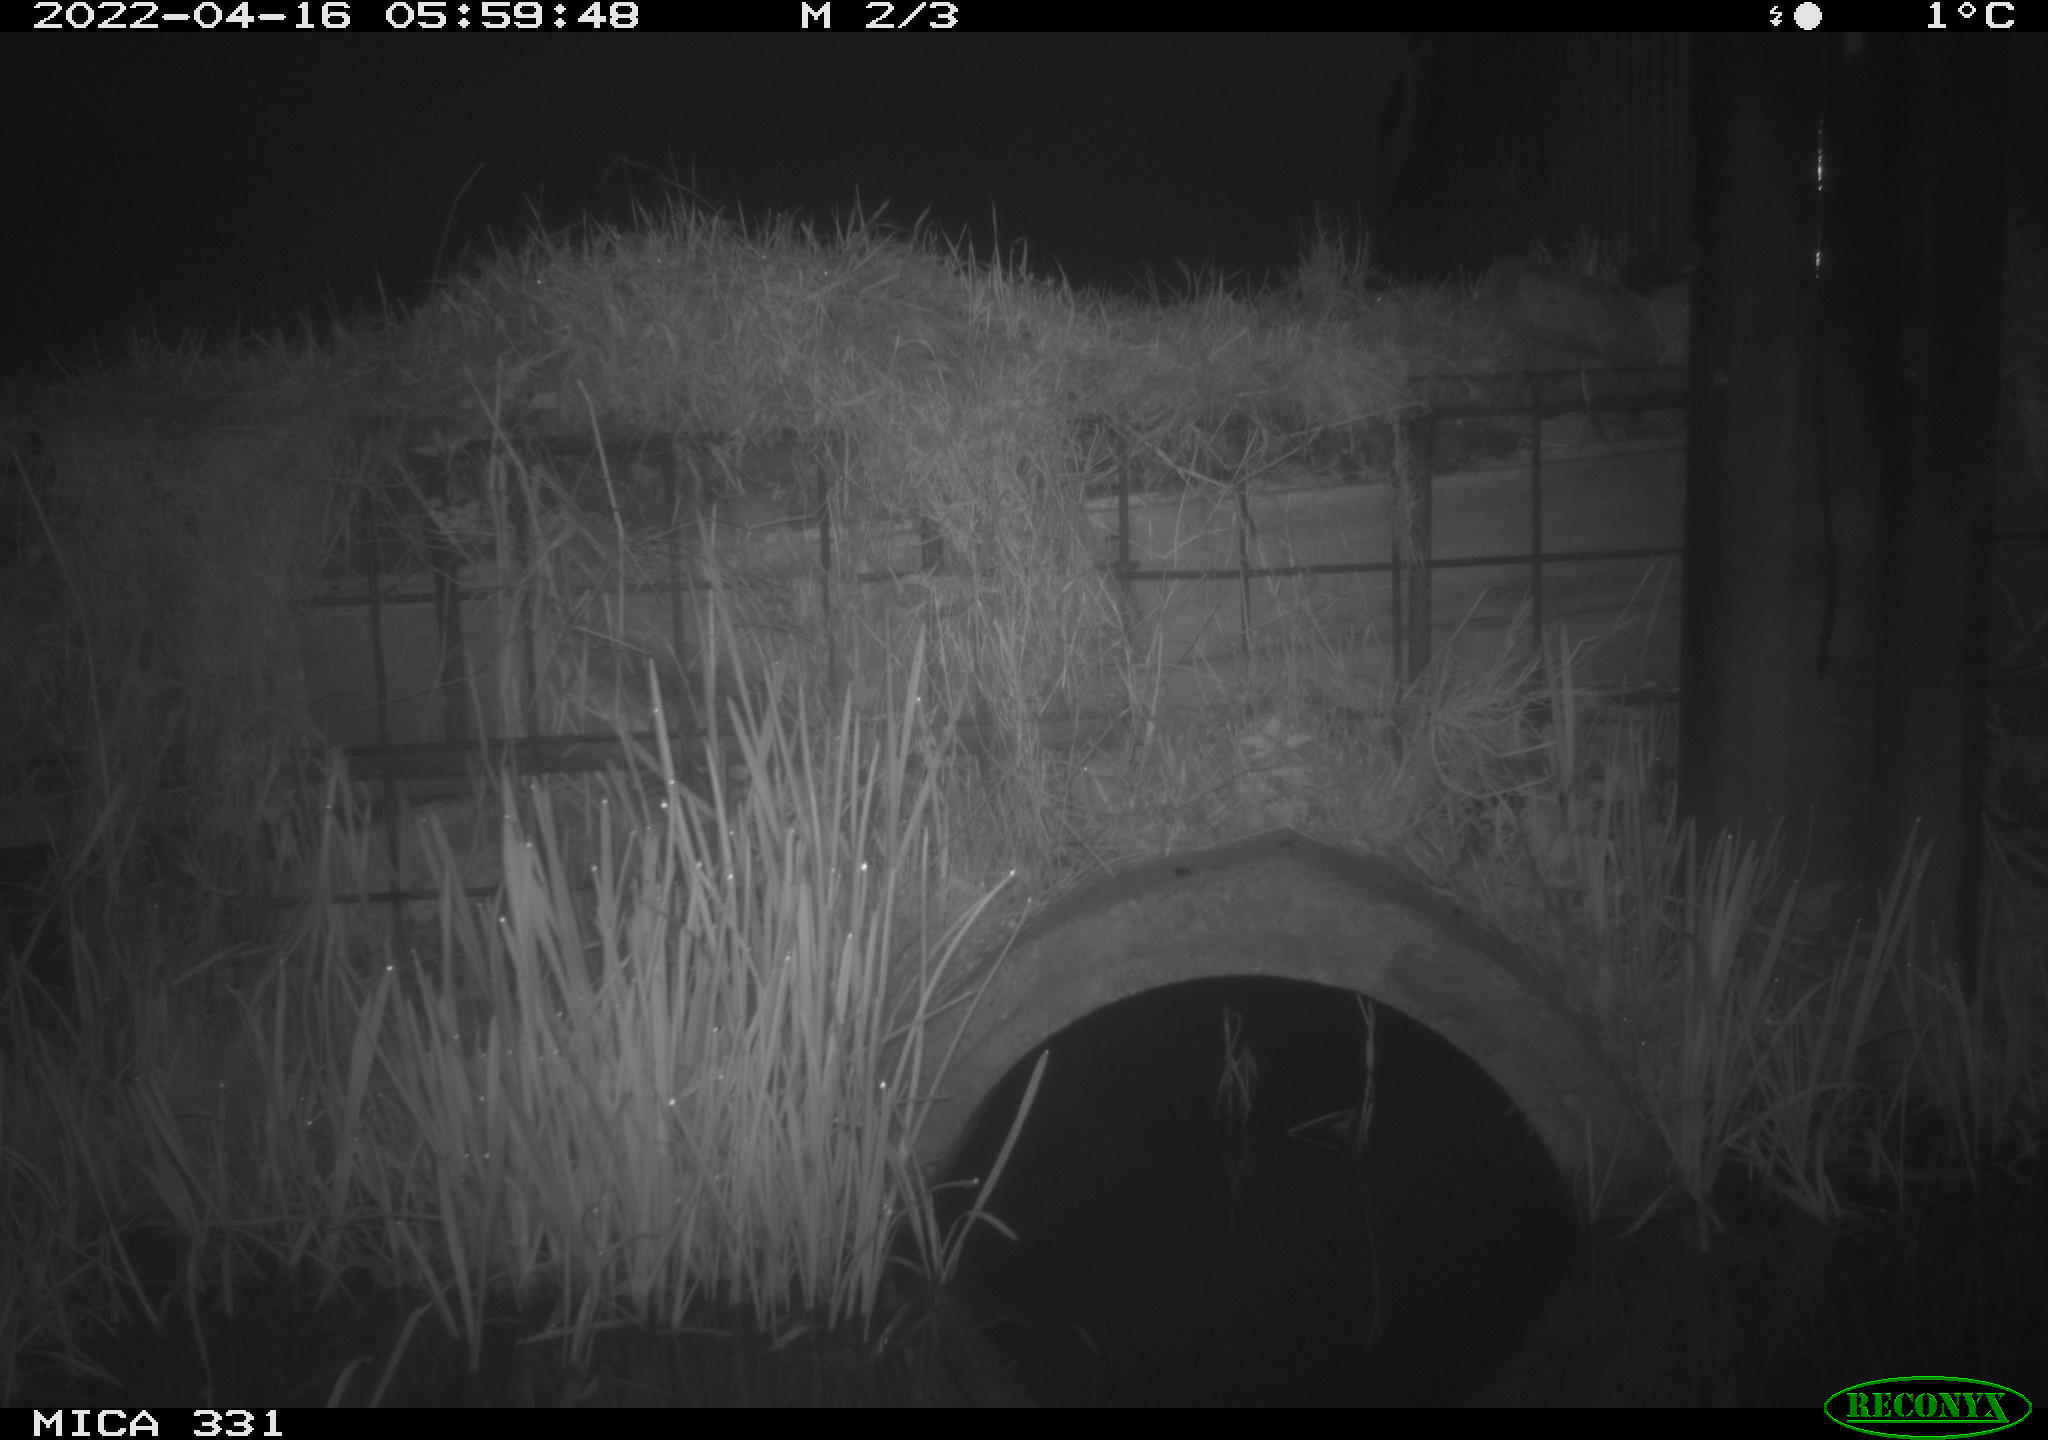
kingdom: Animalia
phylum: Chordata
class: Mammalia
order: Rodentia
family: Muridae
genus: Rattus
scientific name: Rattus norvegicus
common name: Brown rat
